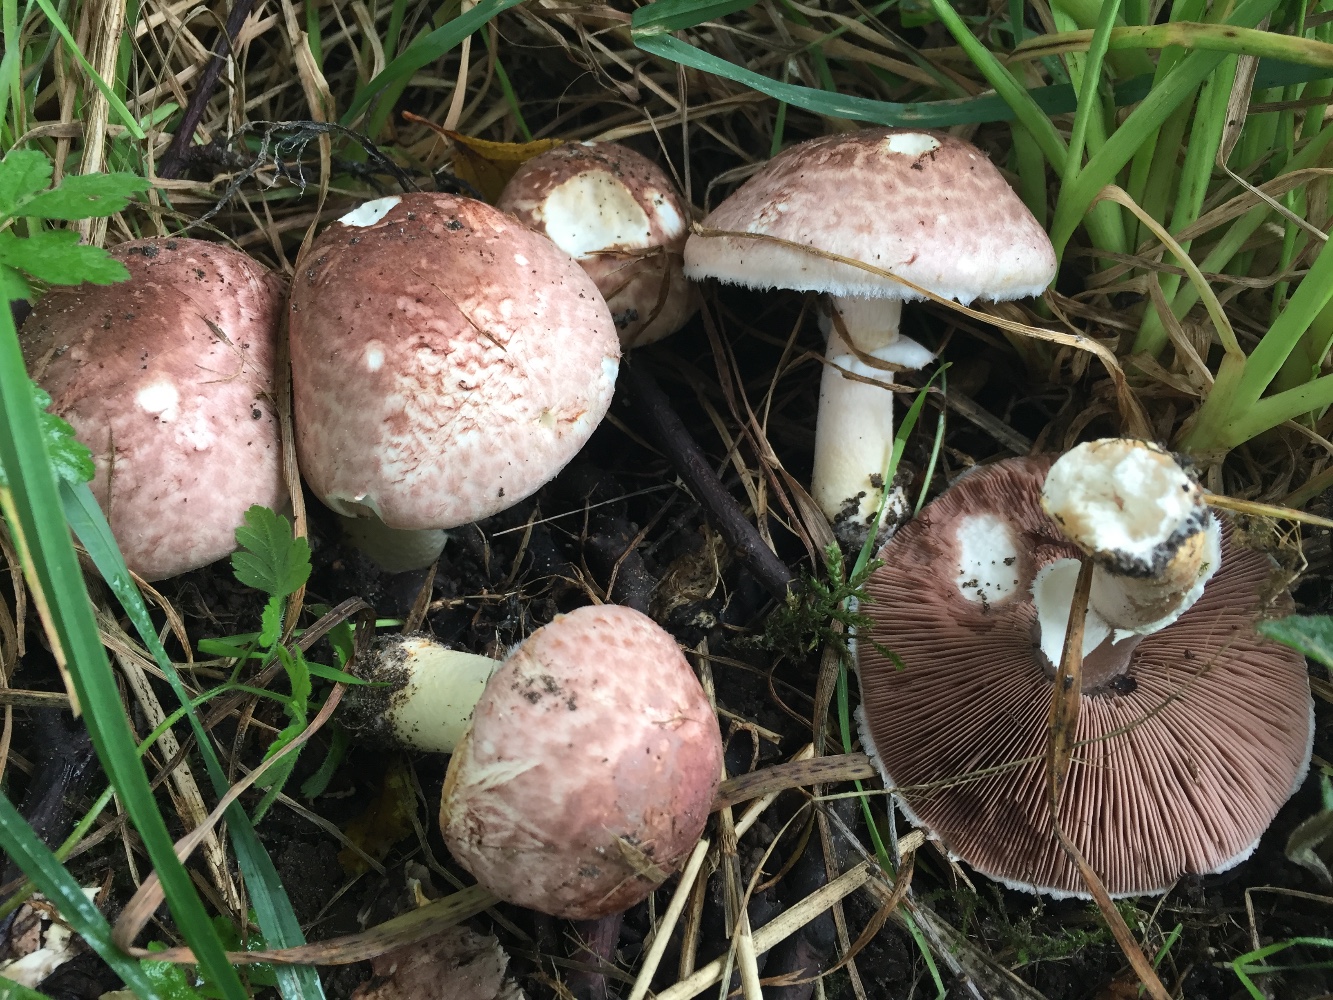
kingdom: Fungi
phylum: Basidiomycota
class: Agaricomycetes
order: Agaricales
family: Agaricaceae
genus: Agaricus
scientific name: Agaricus dulcidulus
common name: blegrød champignon
